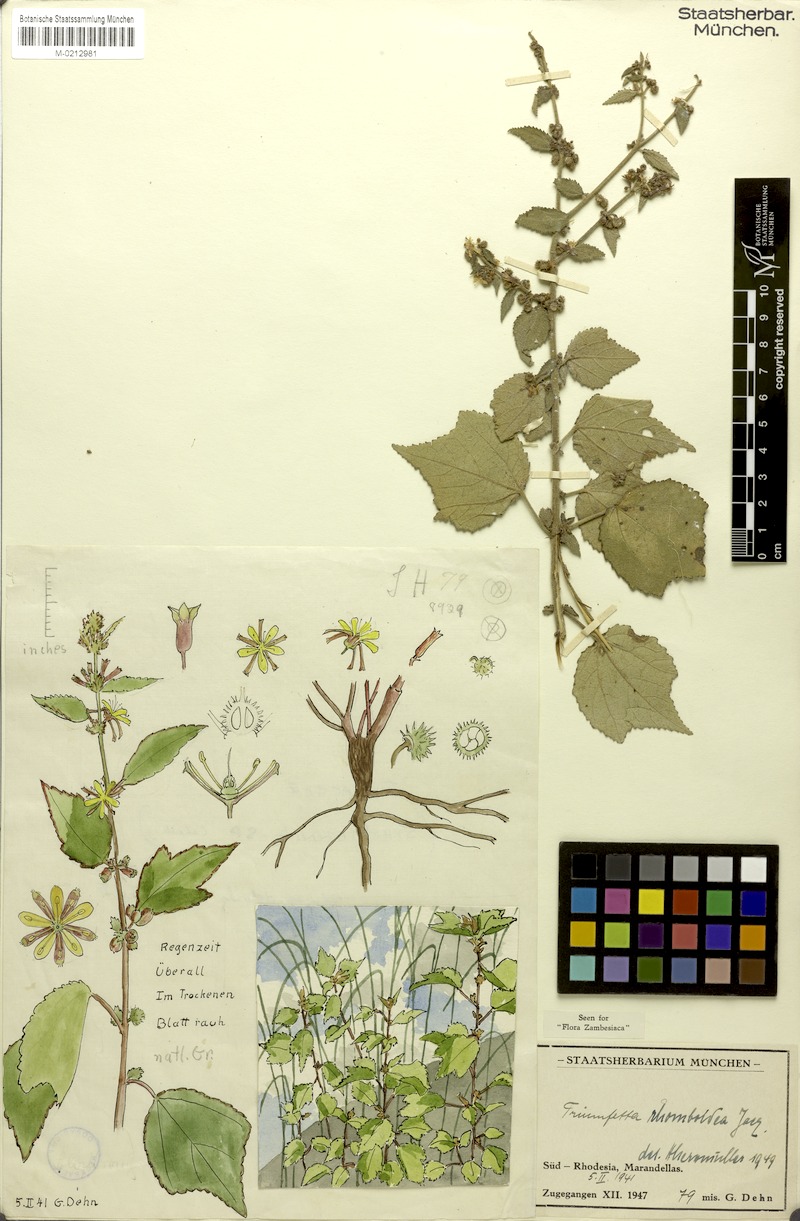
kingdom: Plantae
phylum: Tracheophyta
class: Magnoliopsida
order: Malvales
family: Malvaceae
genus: Triumfetta
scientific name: Triumfetta rhomboidea
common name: Diamond burbark
